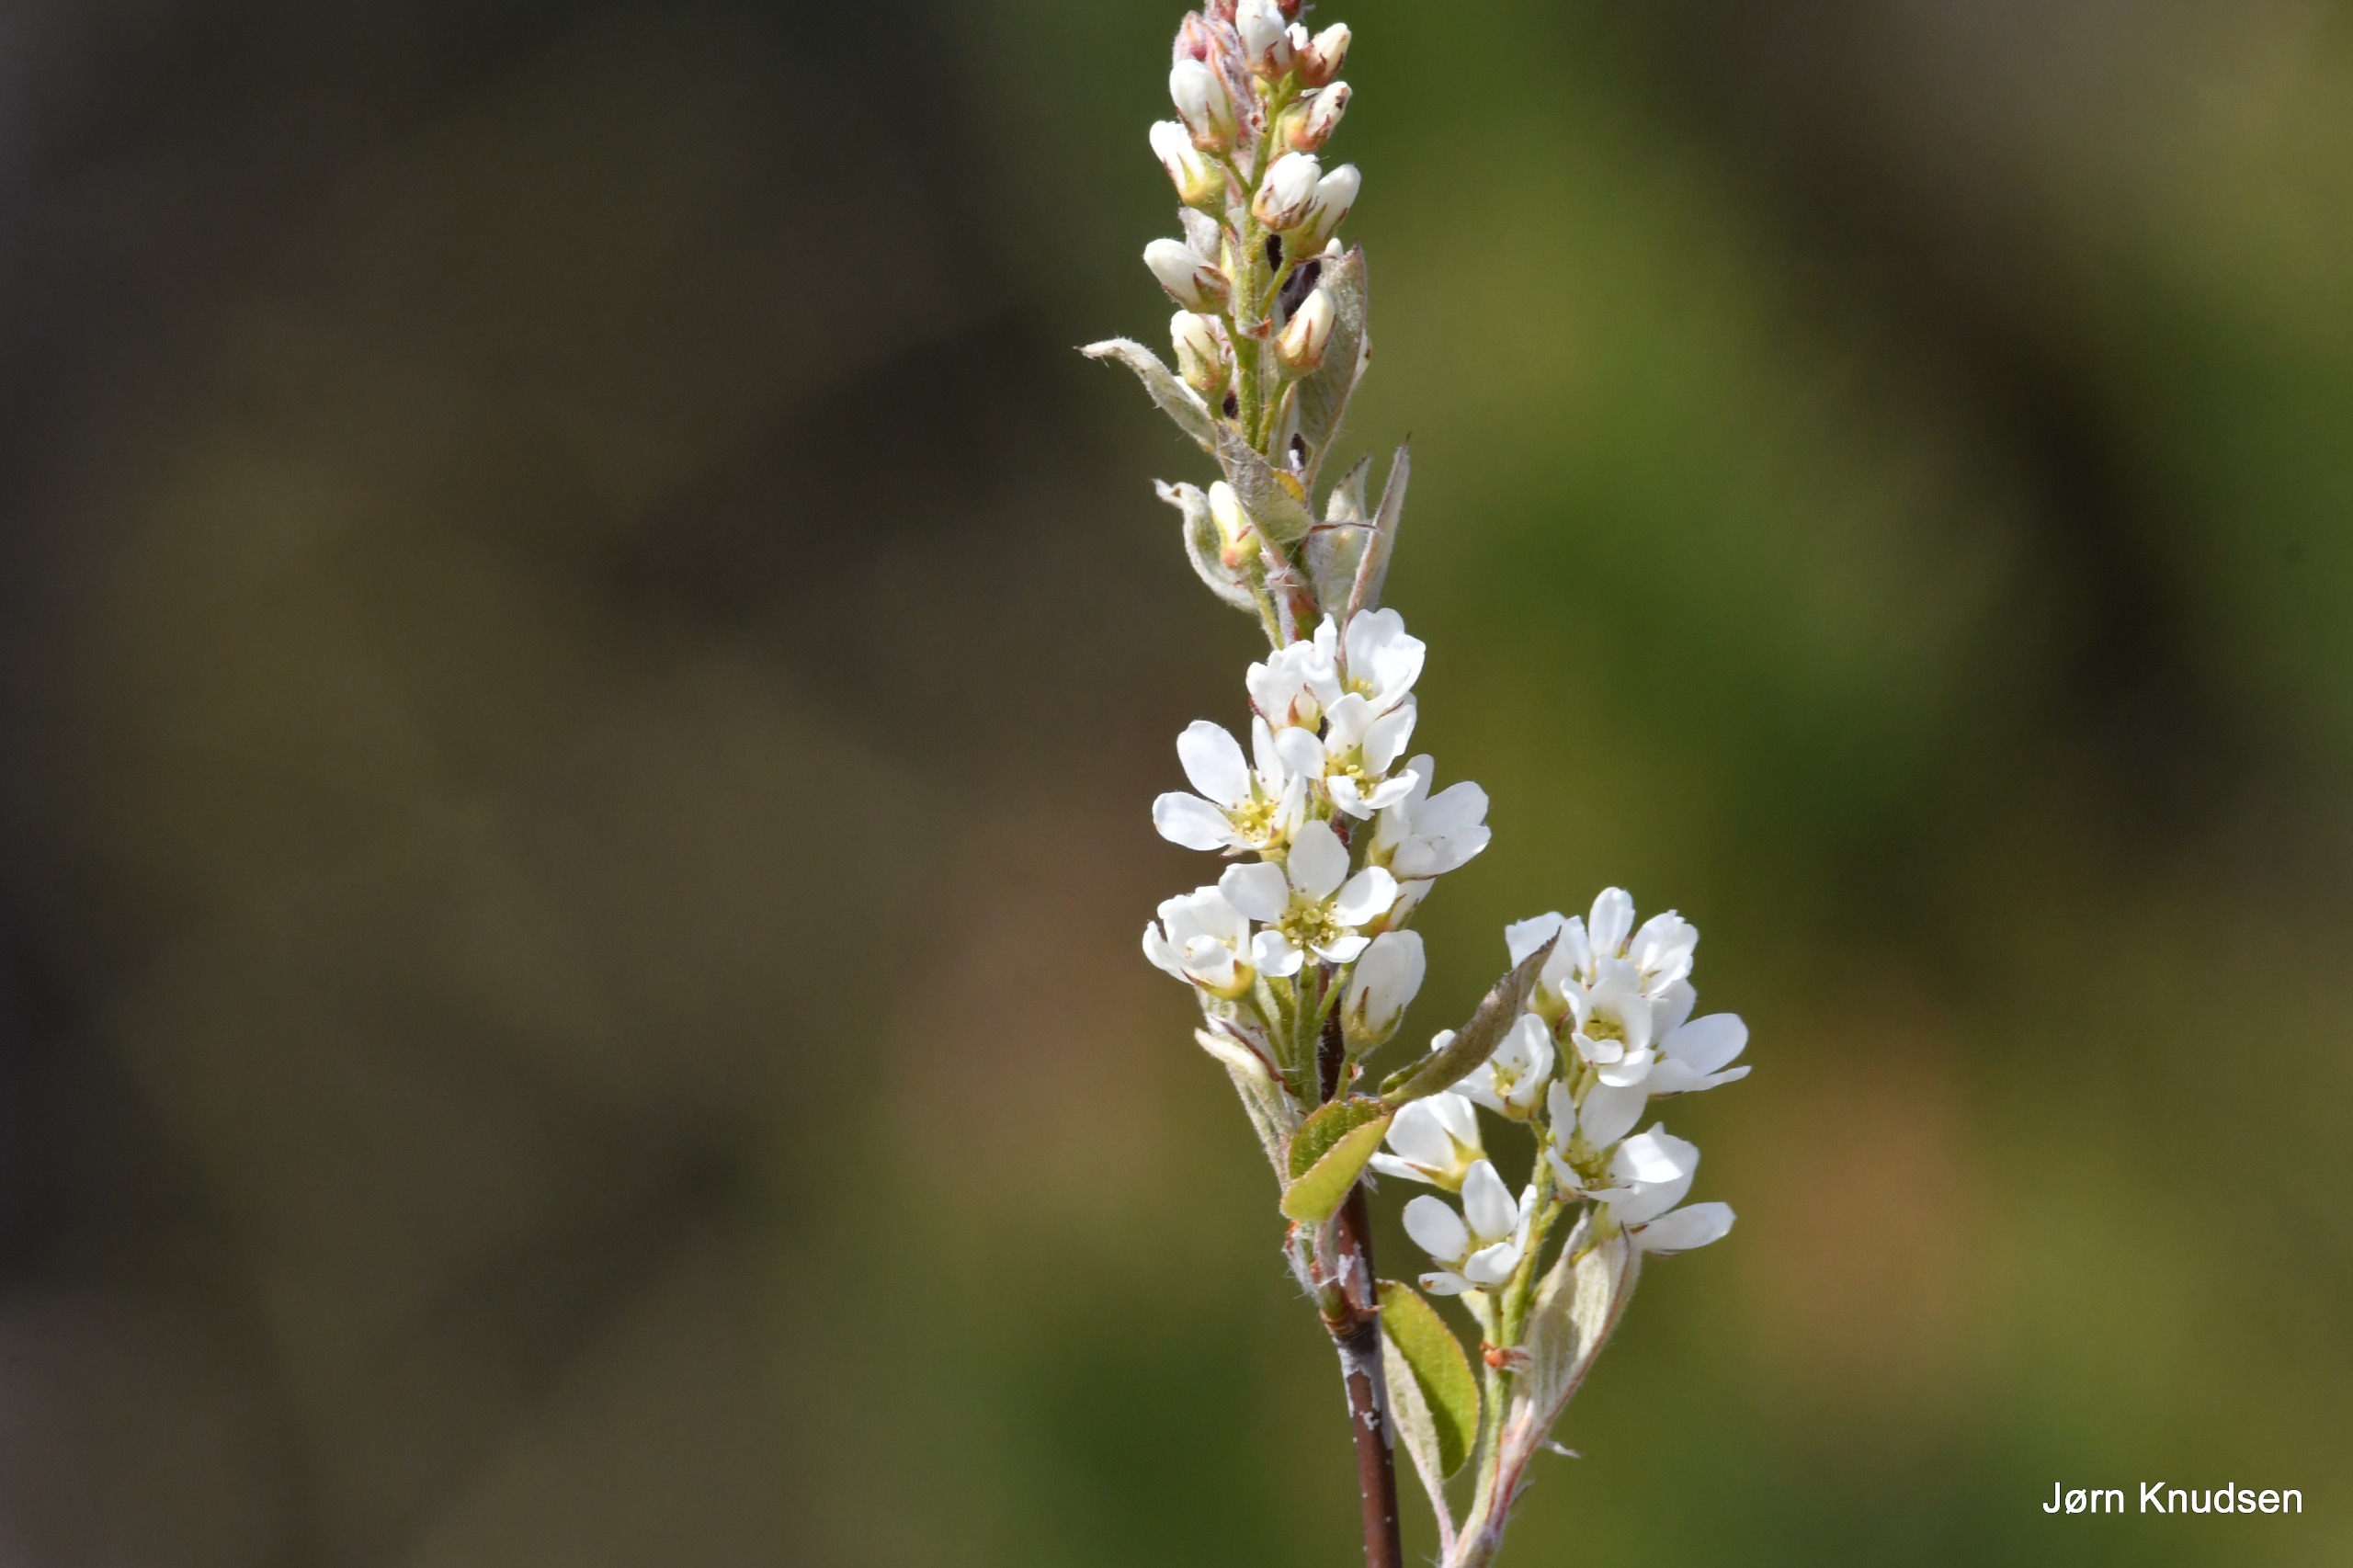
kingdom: Plantae
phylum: Tracheophyta
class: Magnoliopsida
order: Rosales
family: Rosaceae
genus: Amelanchier
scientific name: Amelanchier humilis
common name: Aks-bærmispel
